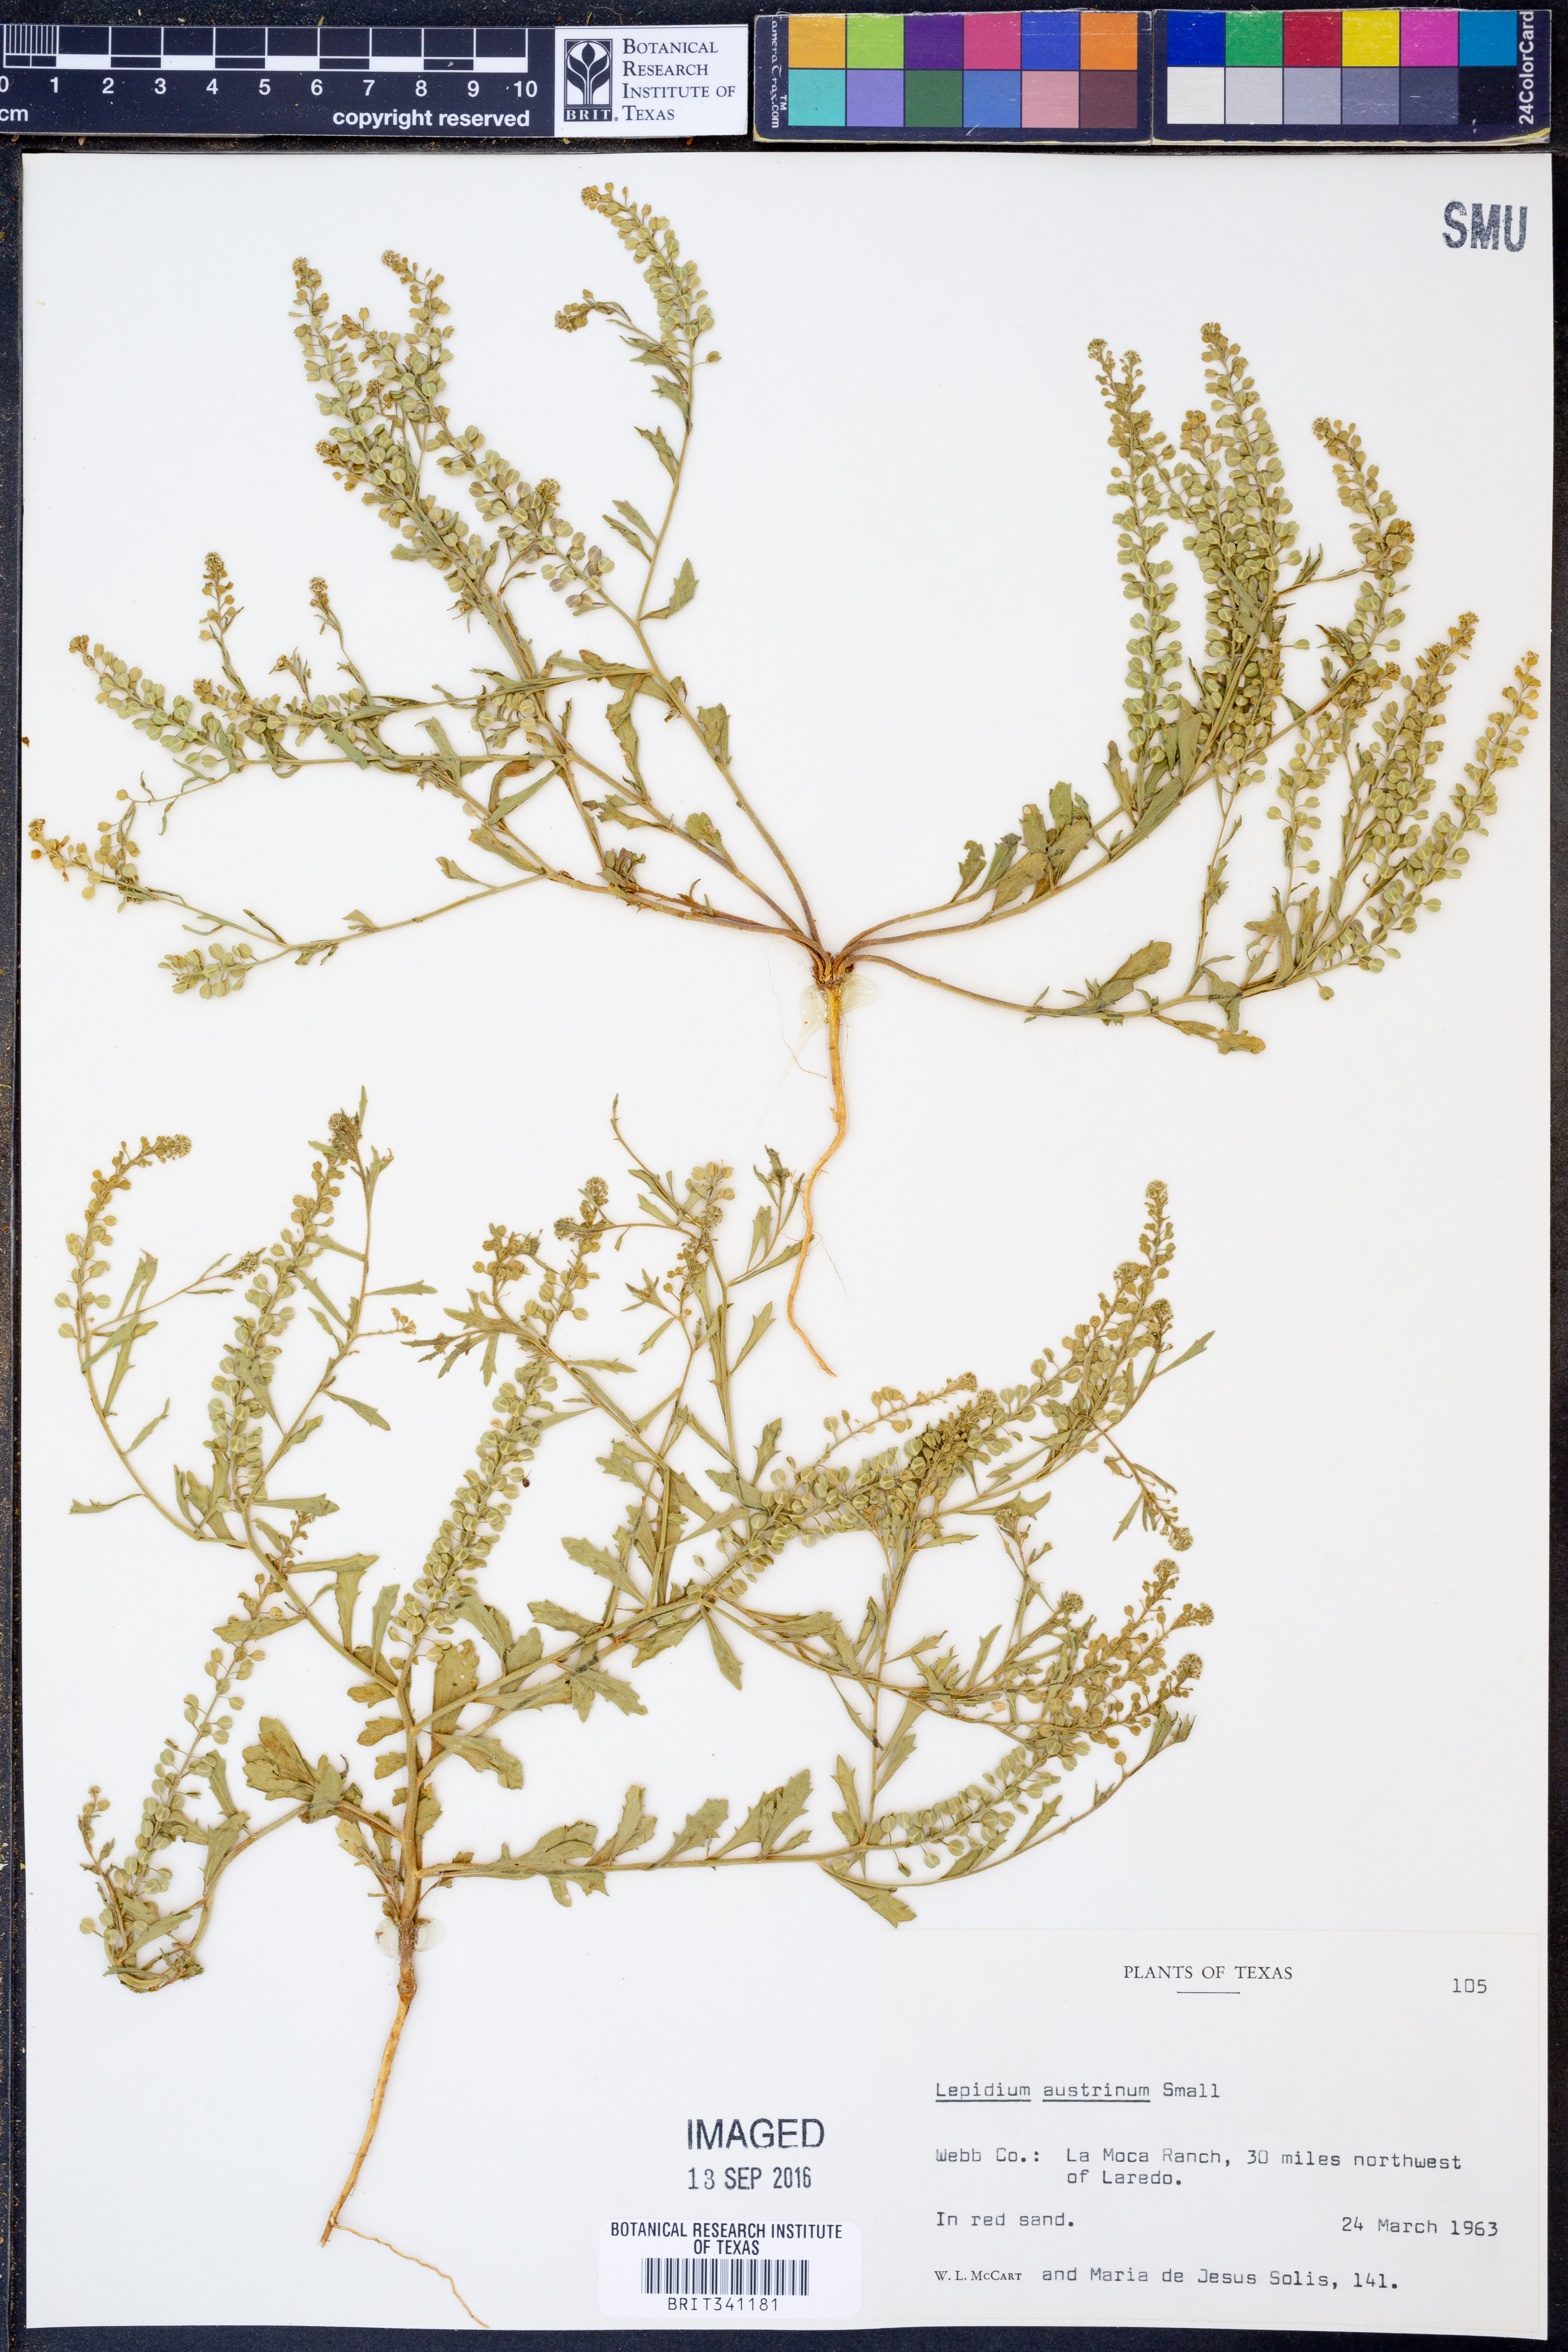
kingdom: Plantae
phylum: Tracheophyta
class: Magnoliopsida
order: Brassicales
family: Brassicaceae
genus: Lepidium
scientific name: Lepidium austrinum
